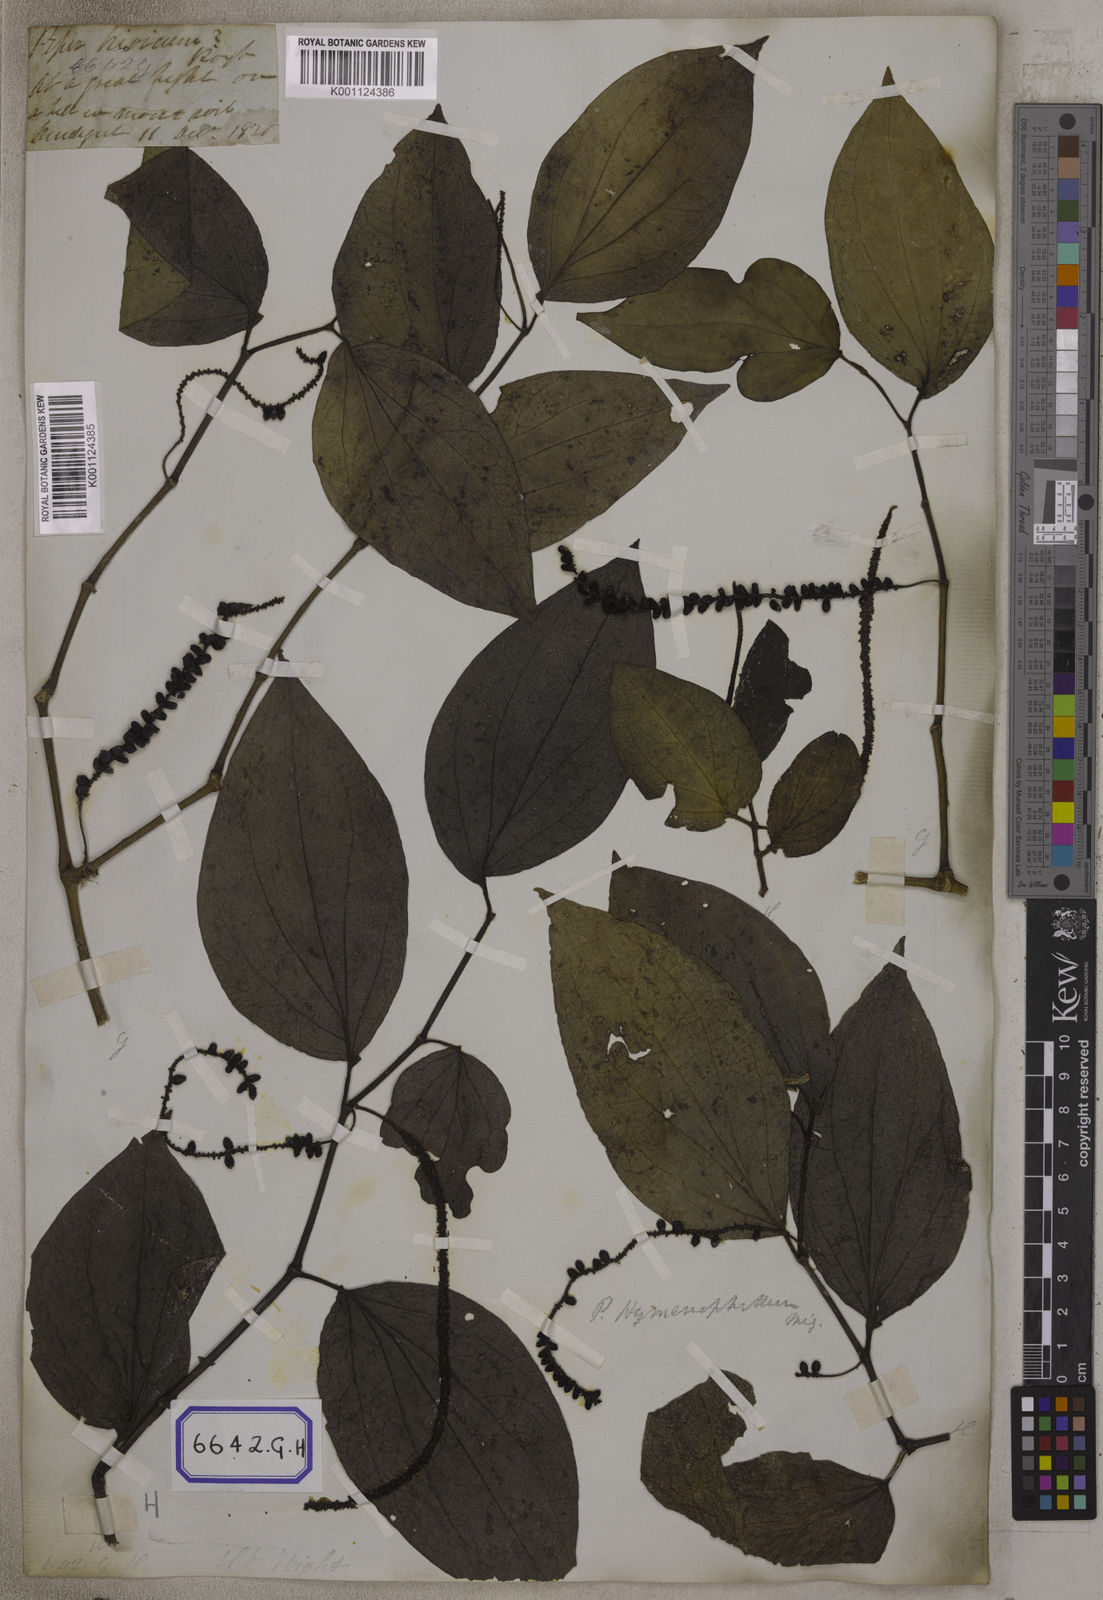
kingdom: Plantae
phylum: Tracheophyta
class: Magnoliopsida
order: Piperales
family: Piperaceae
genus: Piper
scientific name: Piper
